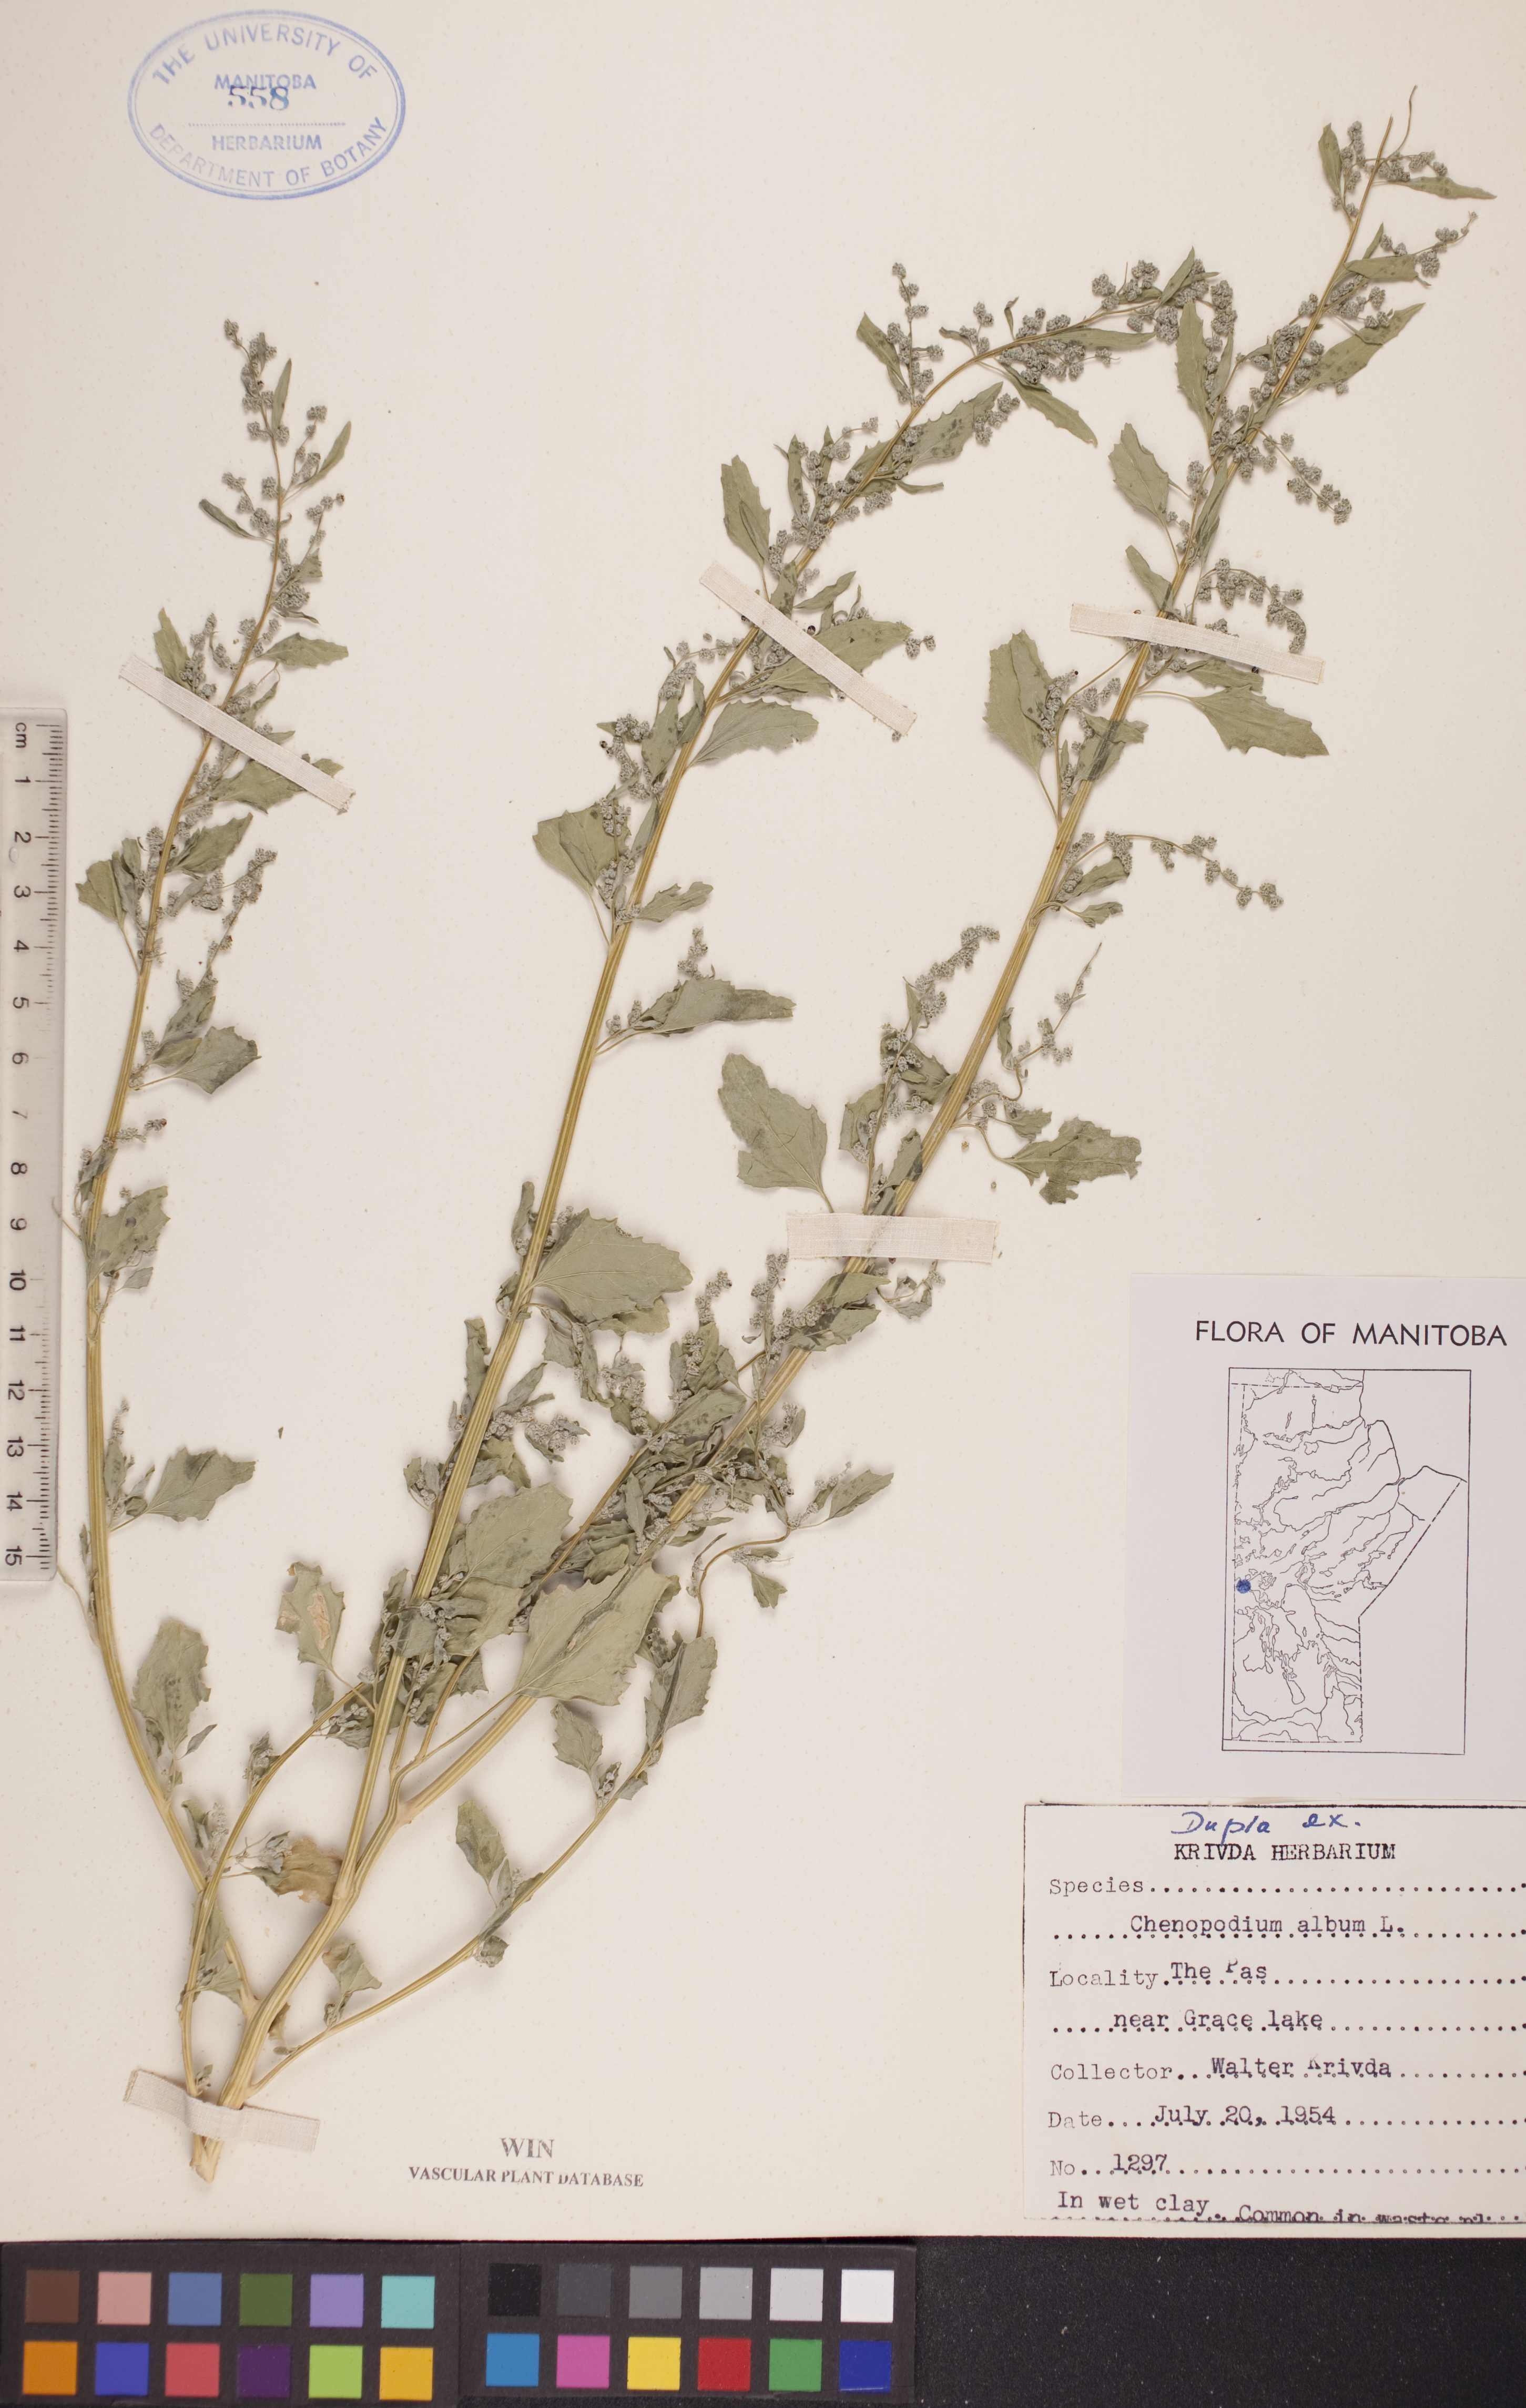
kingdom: Plantae
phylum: Tracheophyta
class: Magnoliopsida
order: Caryophyllales
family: Amaranthaceae
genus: Chenopodium
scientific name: Chenopodium album
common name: Fat-hen
